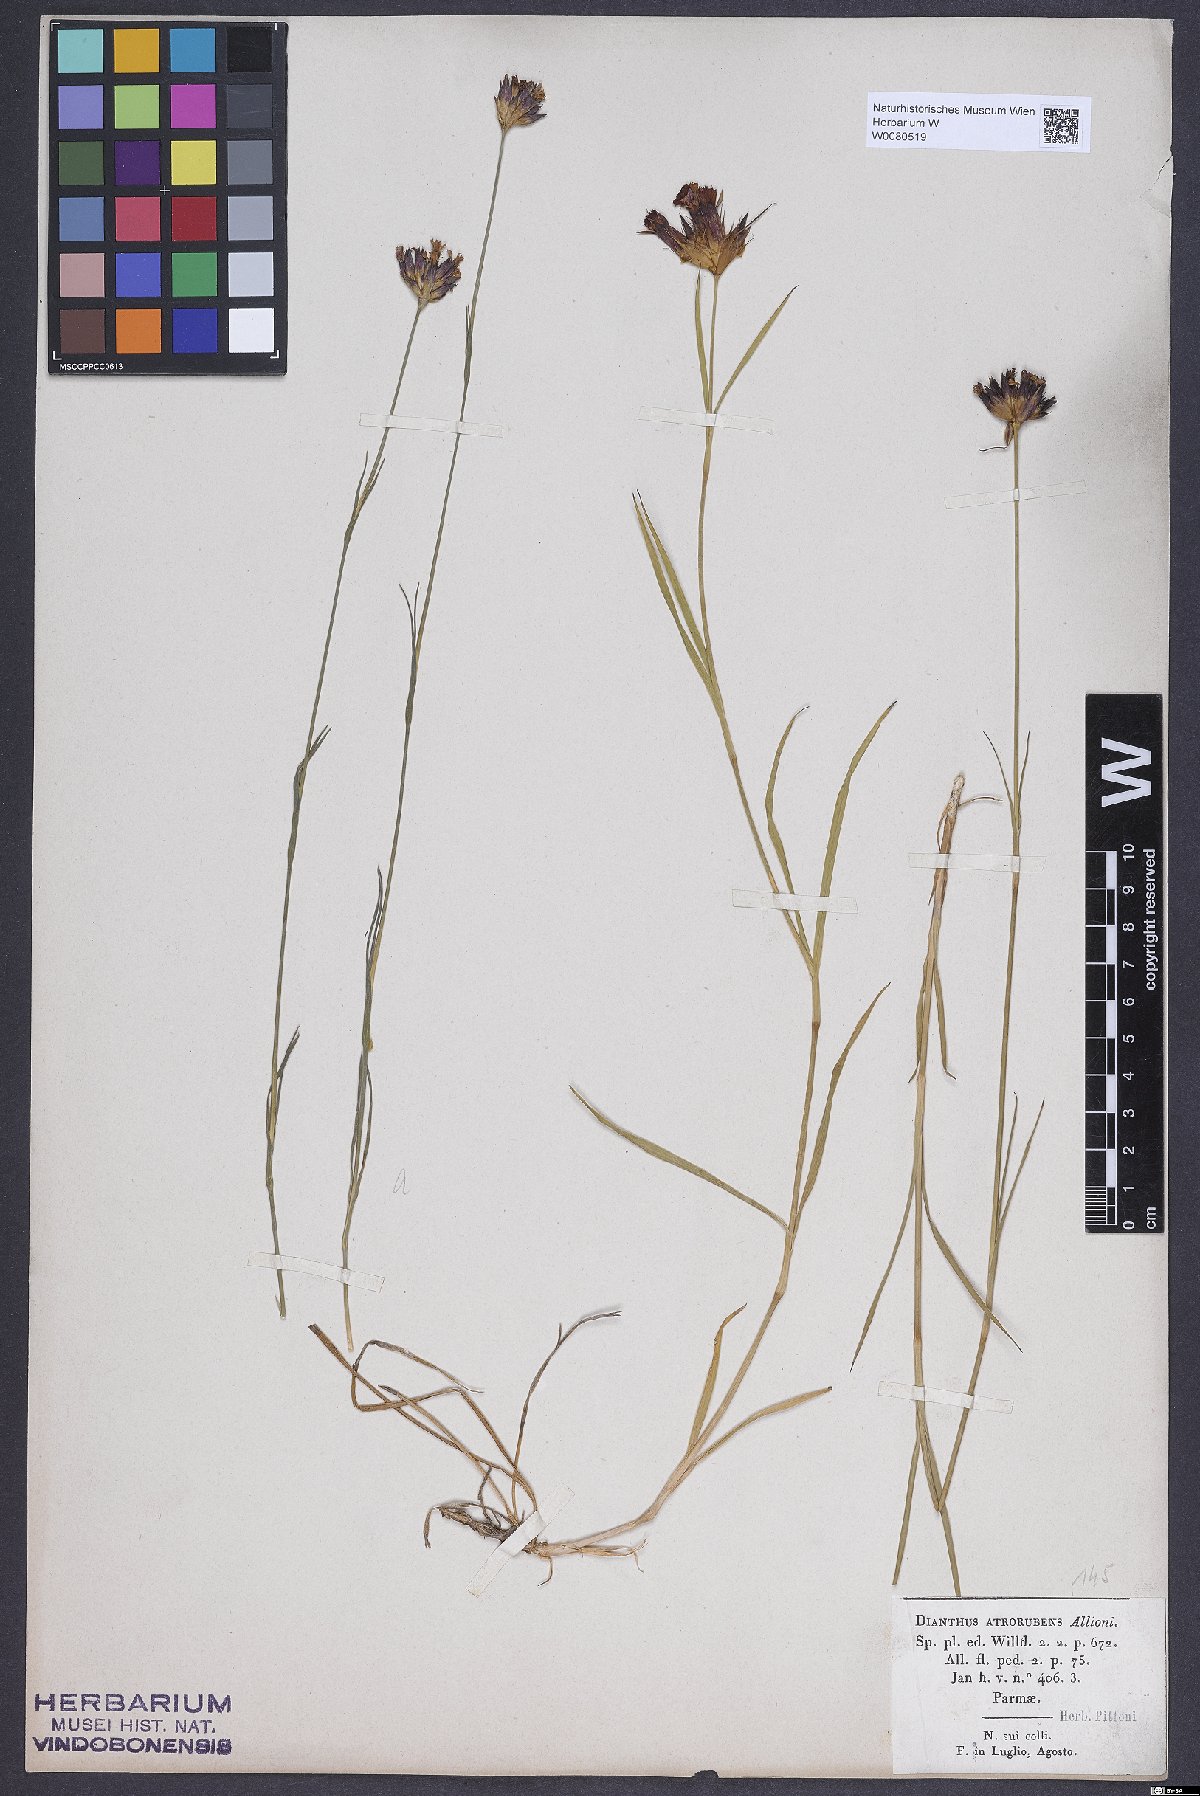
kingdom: Plantae
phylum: Tracheophyta
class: Magnoliopsida
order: Caryophyllales
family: Caryophyllaceae
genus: Dianthus
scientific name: Dianthus seguieri
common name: Ragged pink
